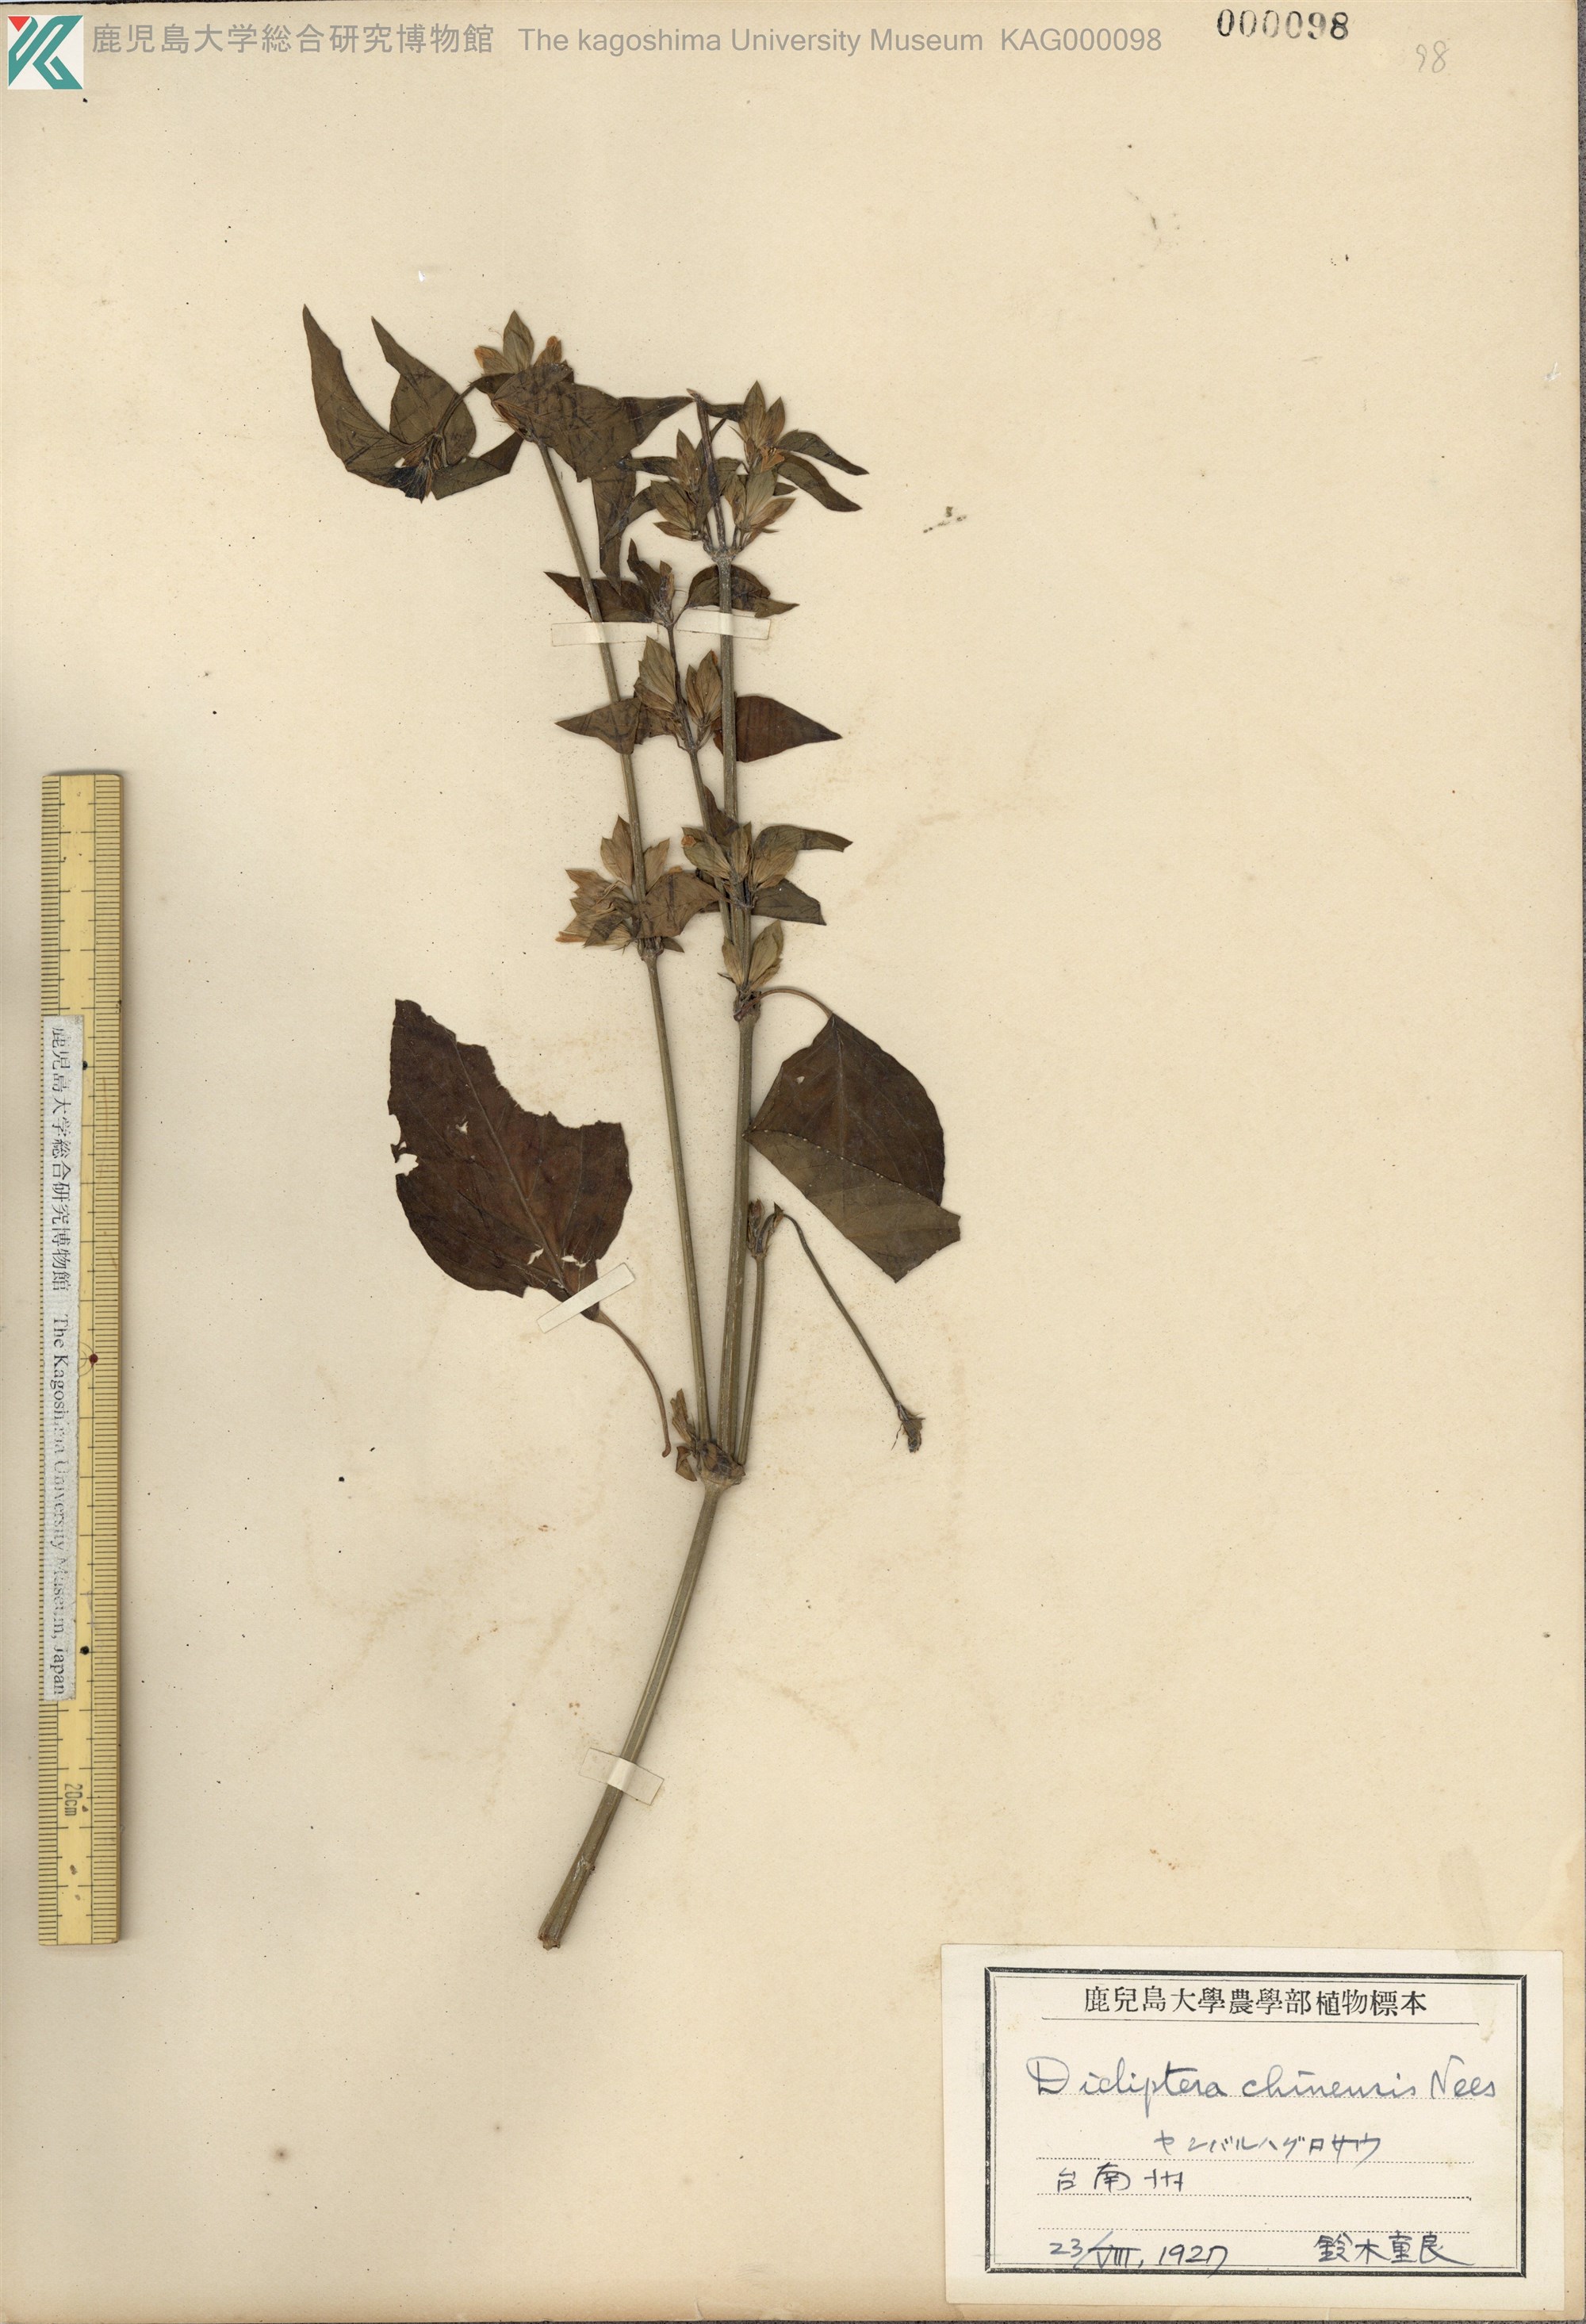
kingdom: Plantae
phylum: Tracheophyta
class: Magnoliopsida
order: Lamiales
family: Acanthaceae
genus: Dicliptera
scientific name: Dicliptera chinensis
